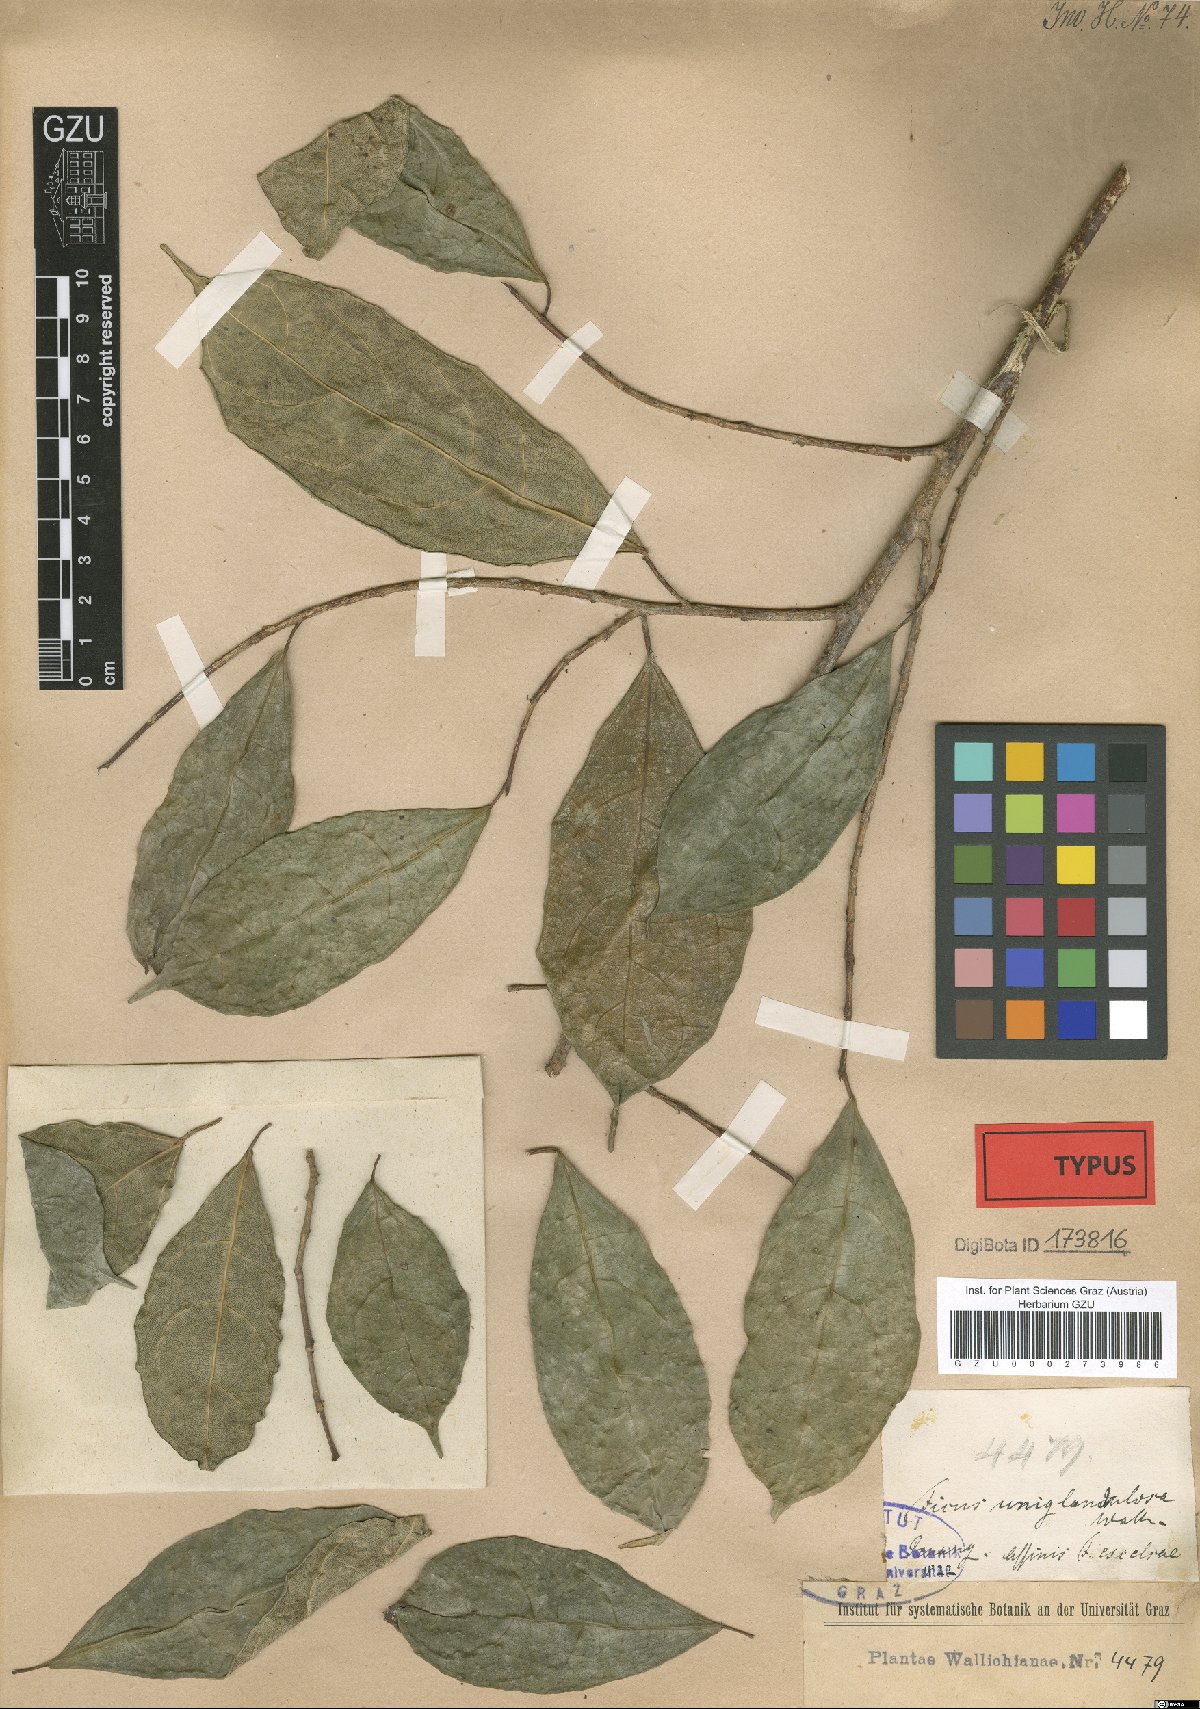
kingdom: Plantae
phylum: Tracheophyta
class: Magnoliopsida
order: Rosales
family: Moraceae
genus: Ficus
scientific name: Ficus uniglandulosa
